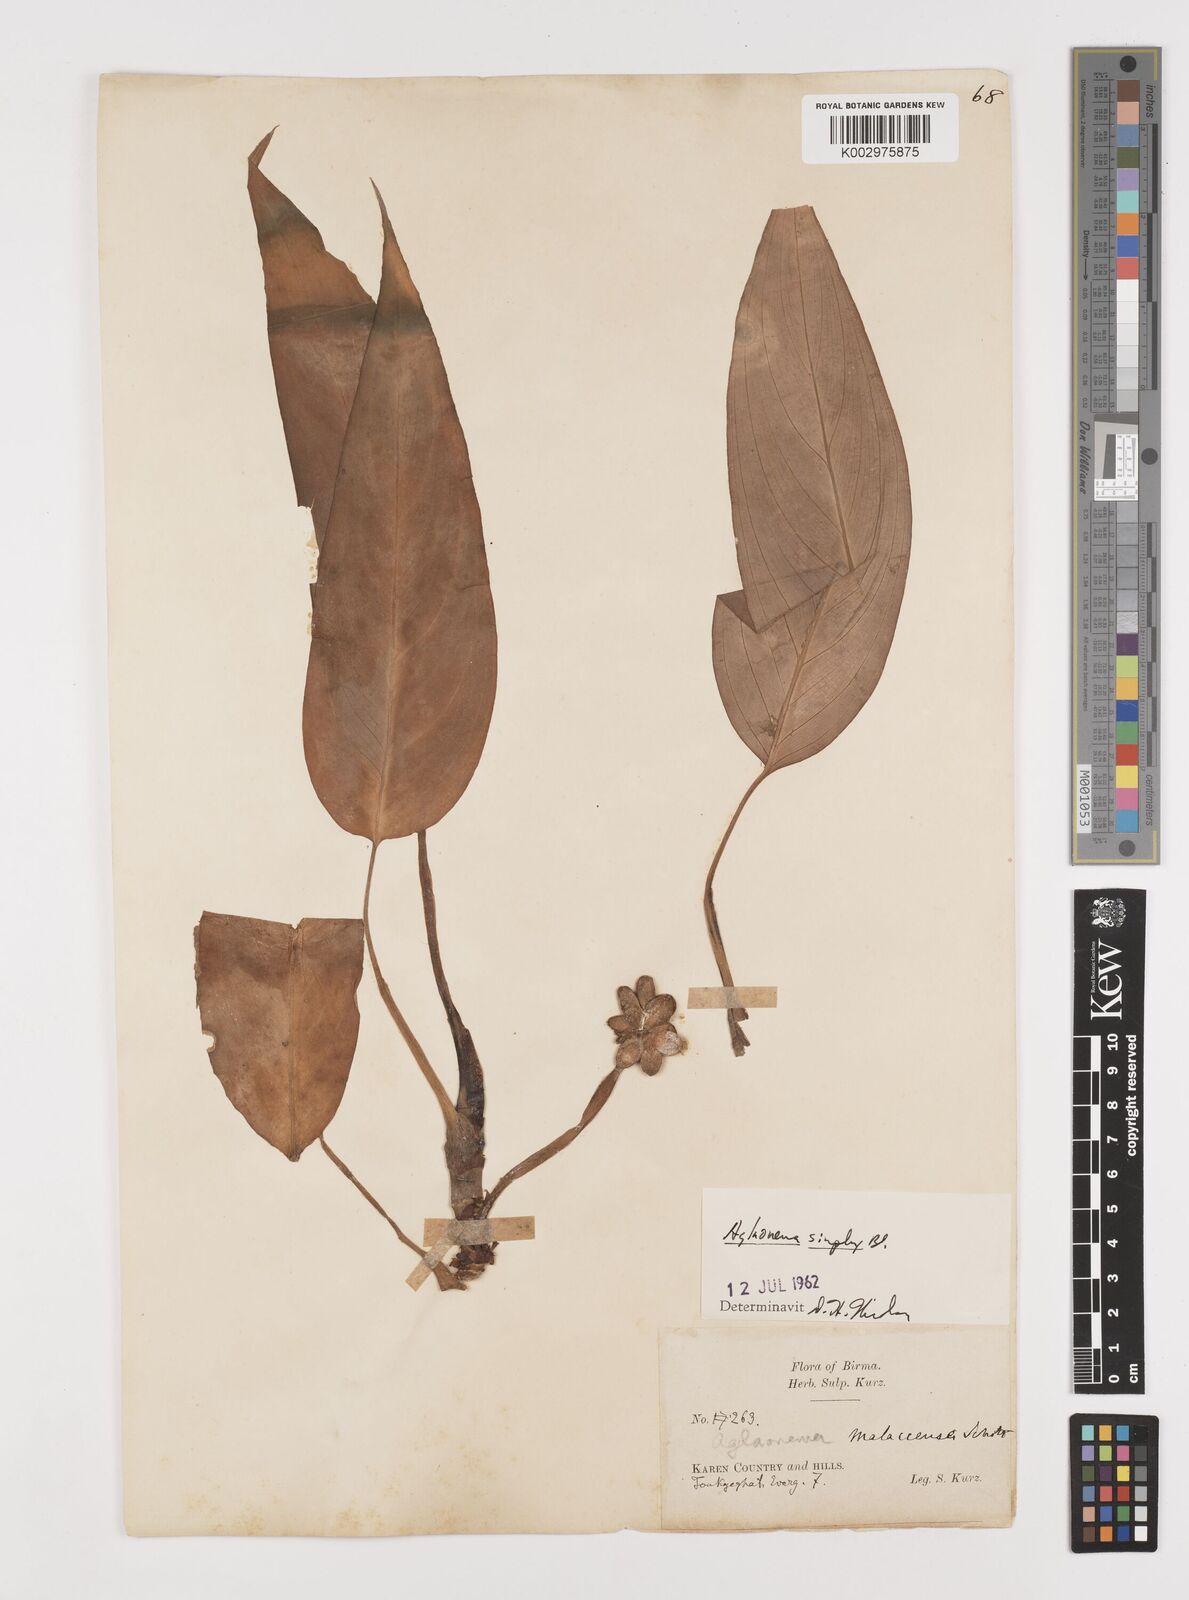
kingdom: Plantae
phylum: Tracheophyta
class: Liliopsida
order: Alismatales
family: Araceae
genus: Aglaonema
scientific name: Aglaonema simplex
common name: Malayan-sword
